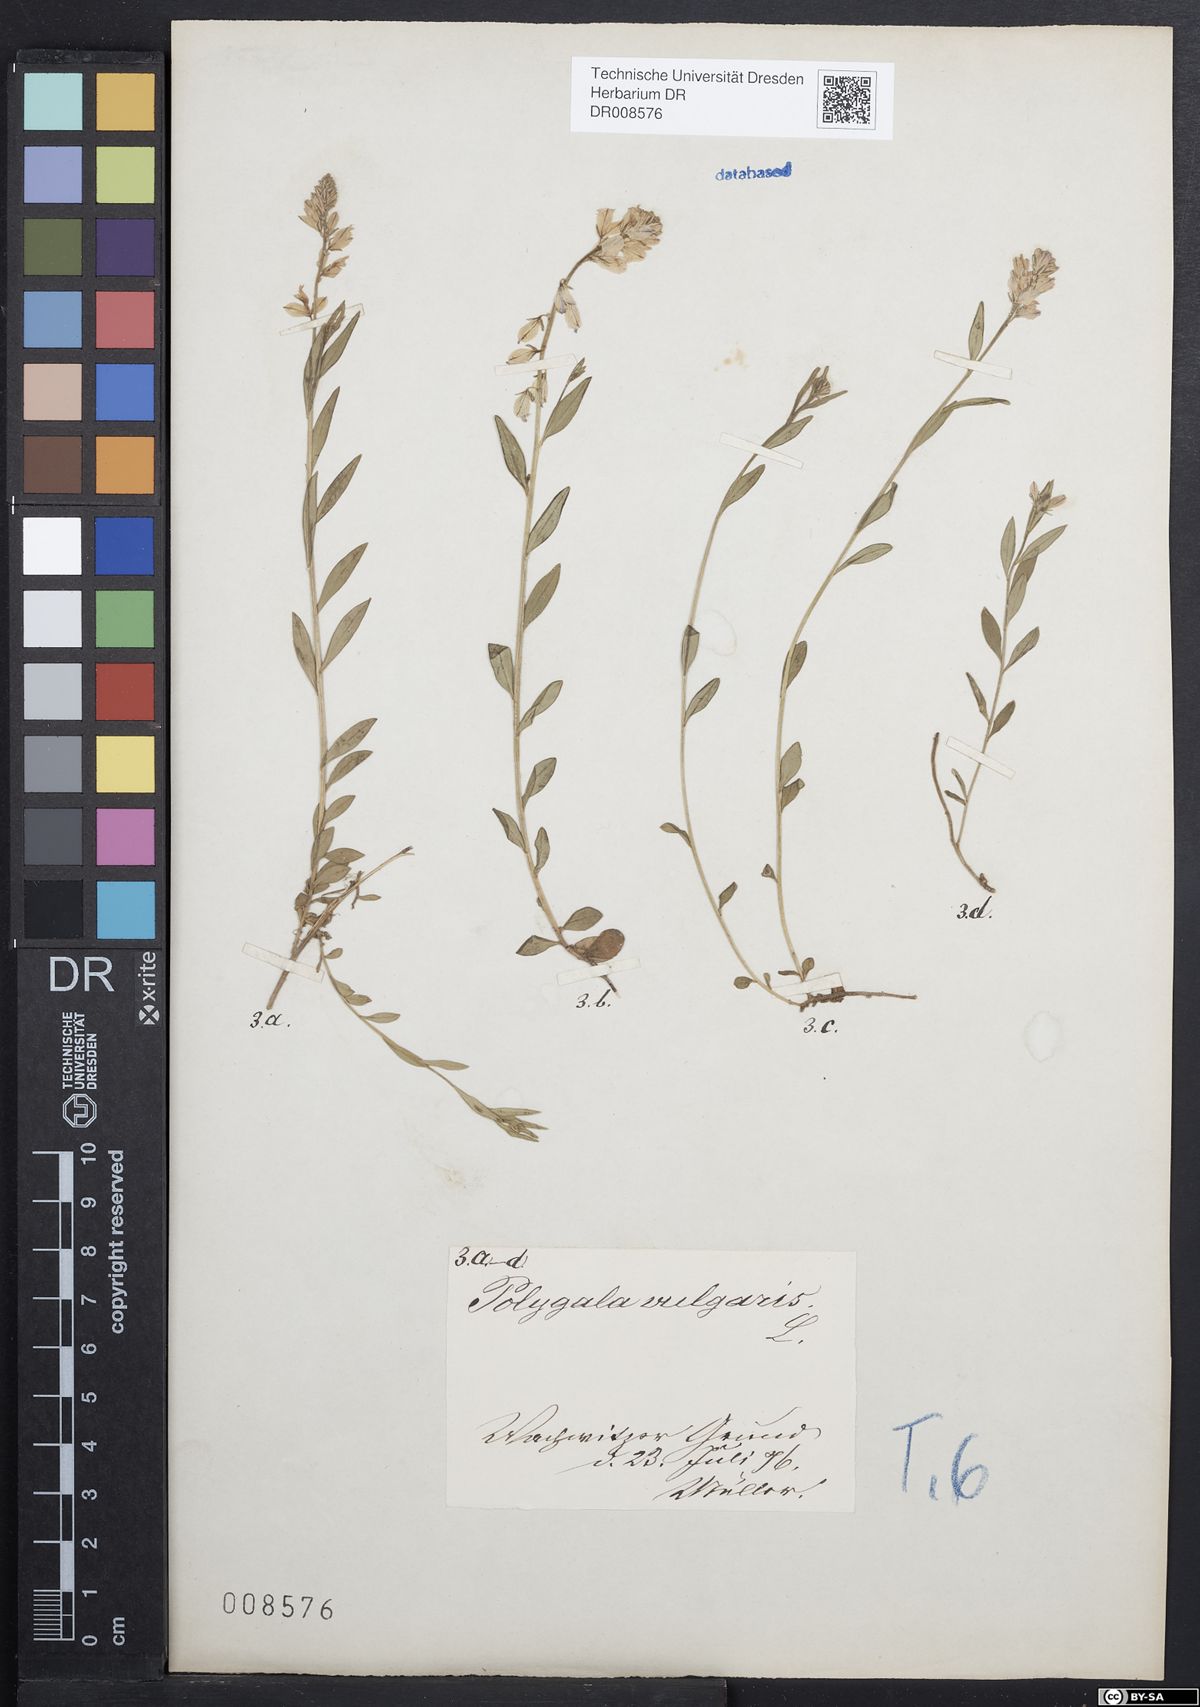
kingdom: Plantae
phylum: Tracheophyta
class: Magnoliopsida
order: Fabales
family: Polygalaceae
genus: Polygala
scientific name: Polygala vulgaris
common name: Common milkwort
